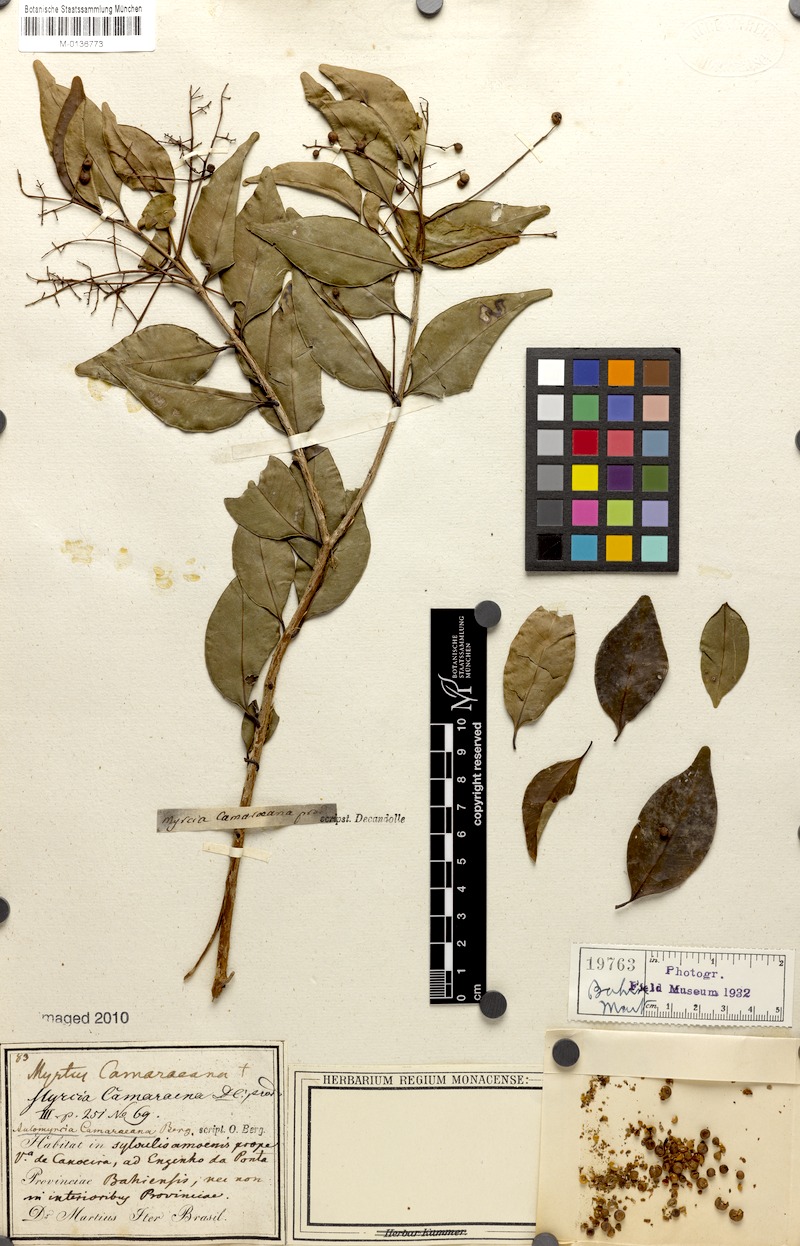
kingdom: Plantae
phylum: Tracheophyta
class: Magnoliopsida
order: Myrtales
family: Myrtaceae
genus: Myrcia
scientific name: Myrcia multiflora
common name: Pedra hume
